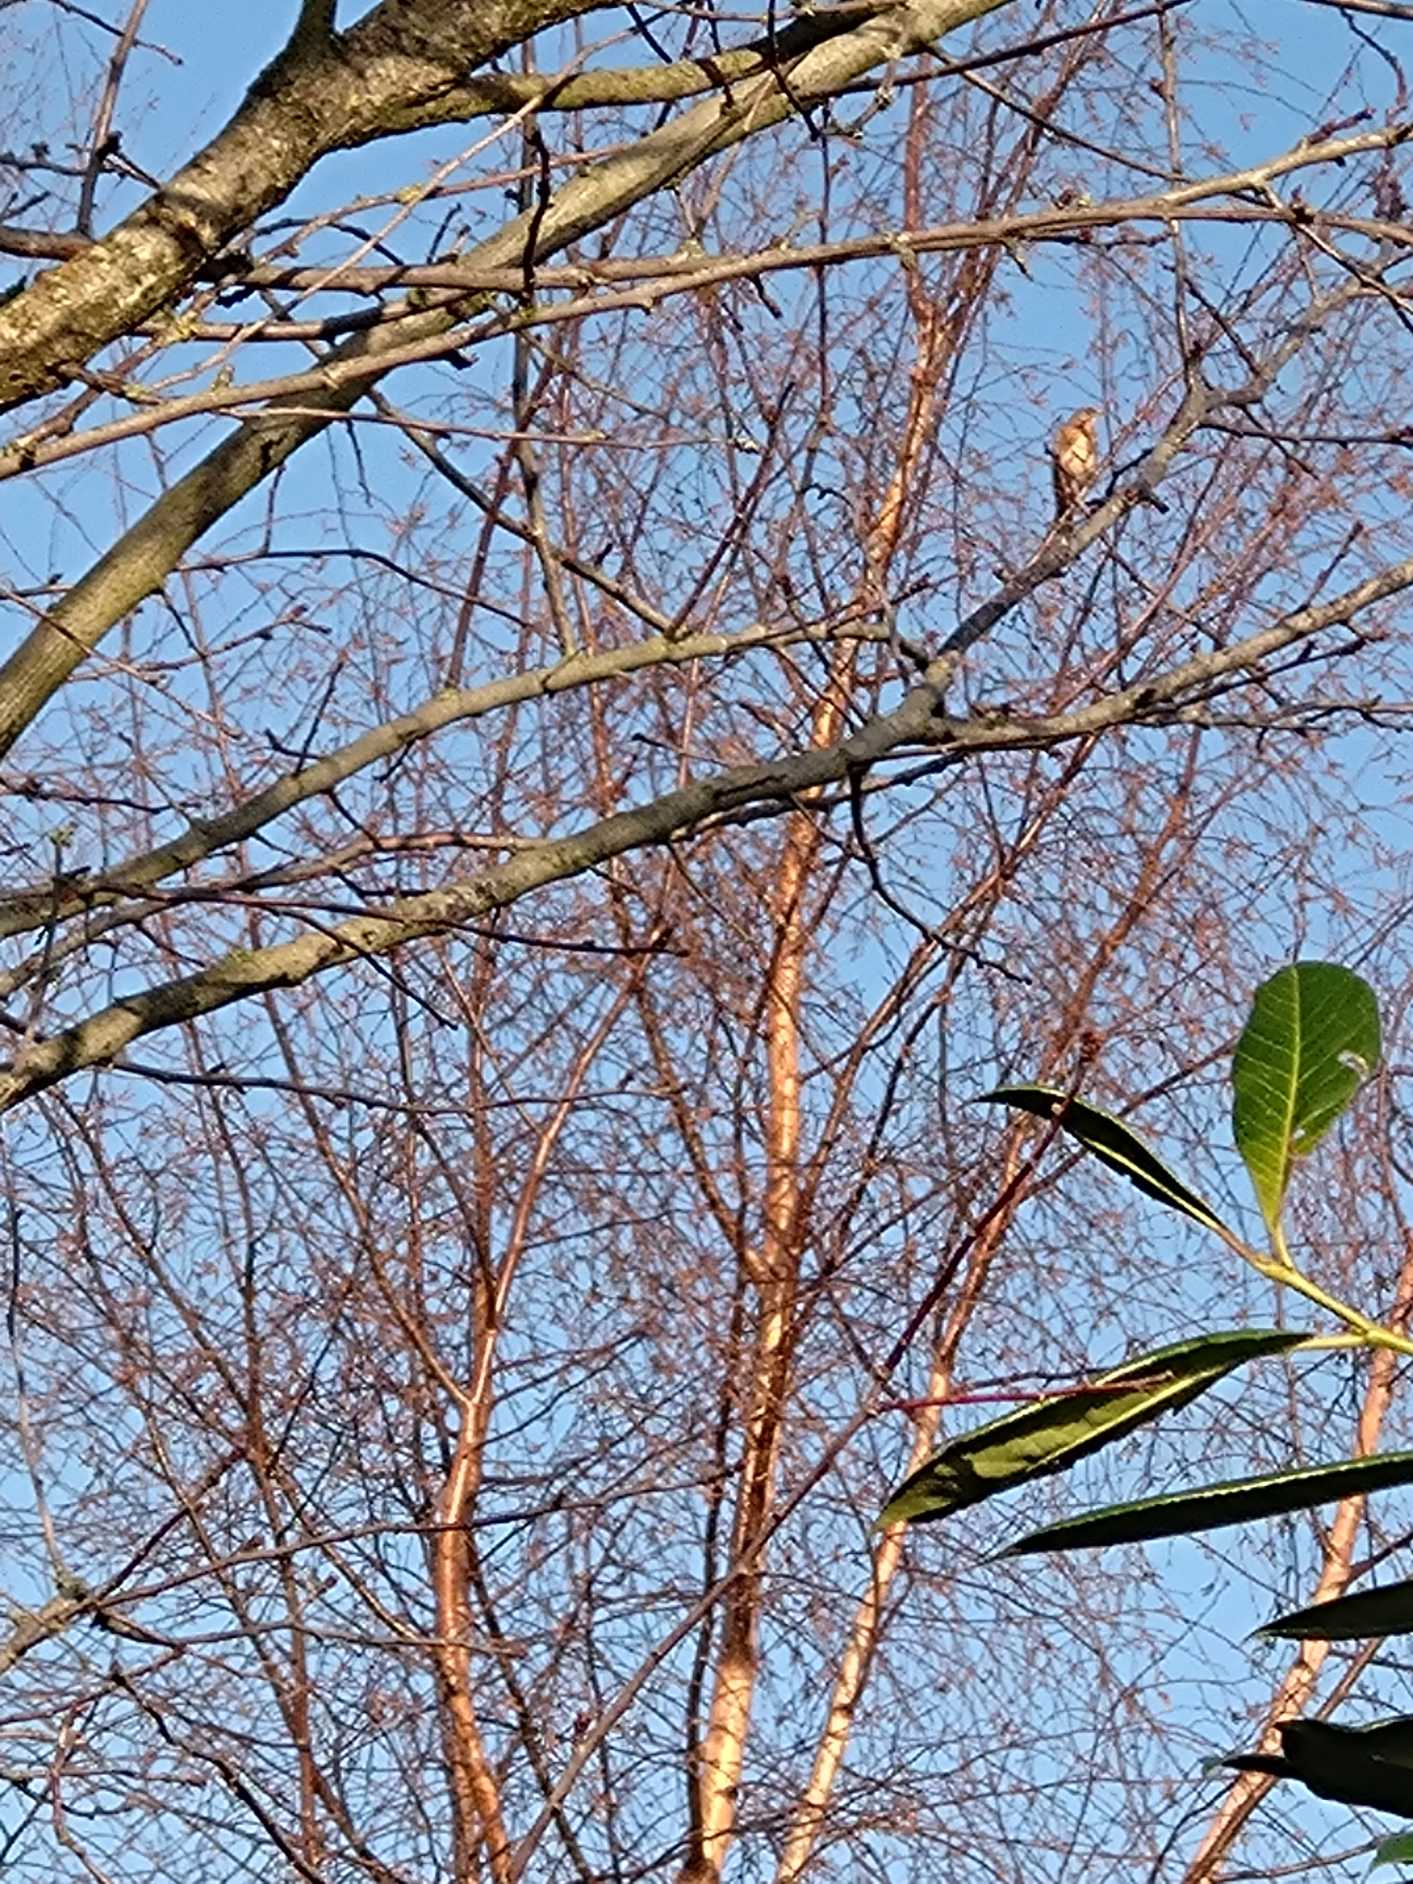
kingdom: Animalia
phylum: Chordata
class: Aves
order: Passeriformes
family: Turdidae
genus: Turdus
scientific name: Turdus pilaris
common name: Sjagger
